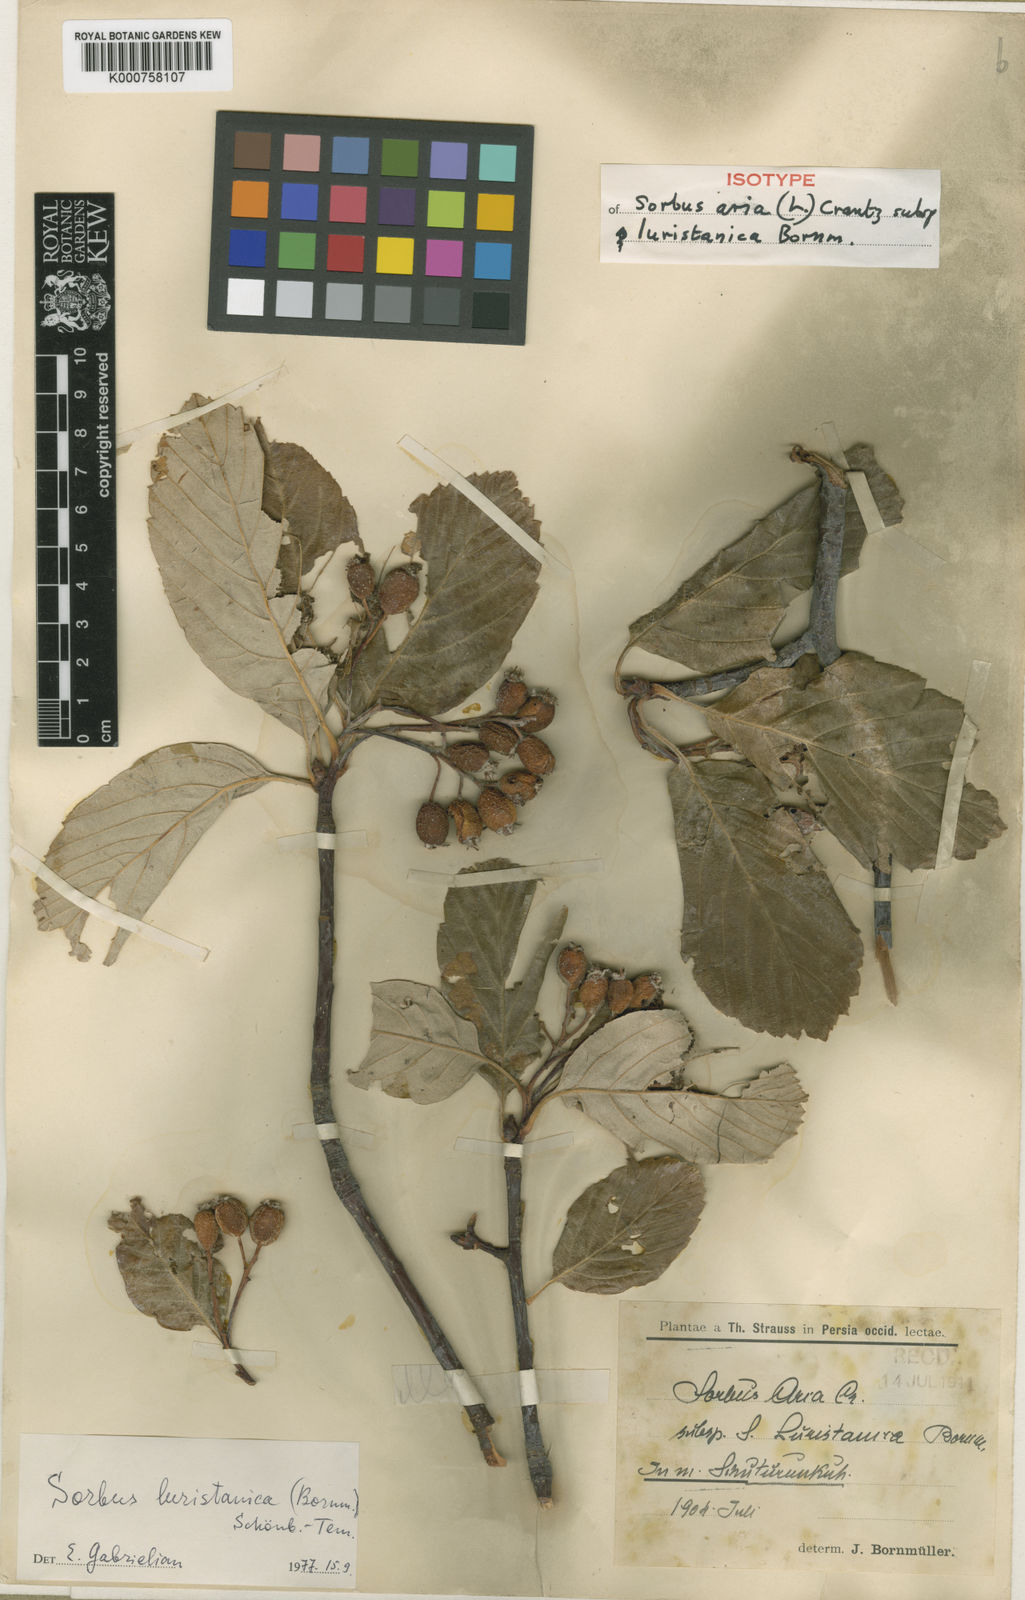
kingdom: Plantae
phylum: Tracheophyta
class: Magnoliopsida
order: Rosales
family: Rosaceae
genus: Sorbus
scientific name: Sorbus
